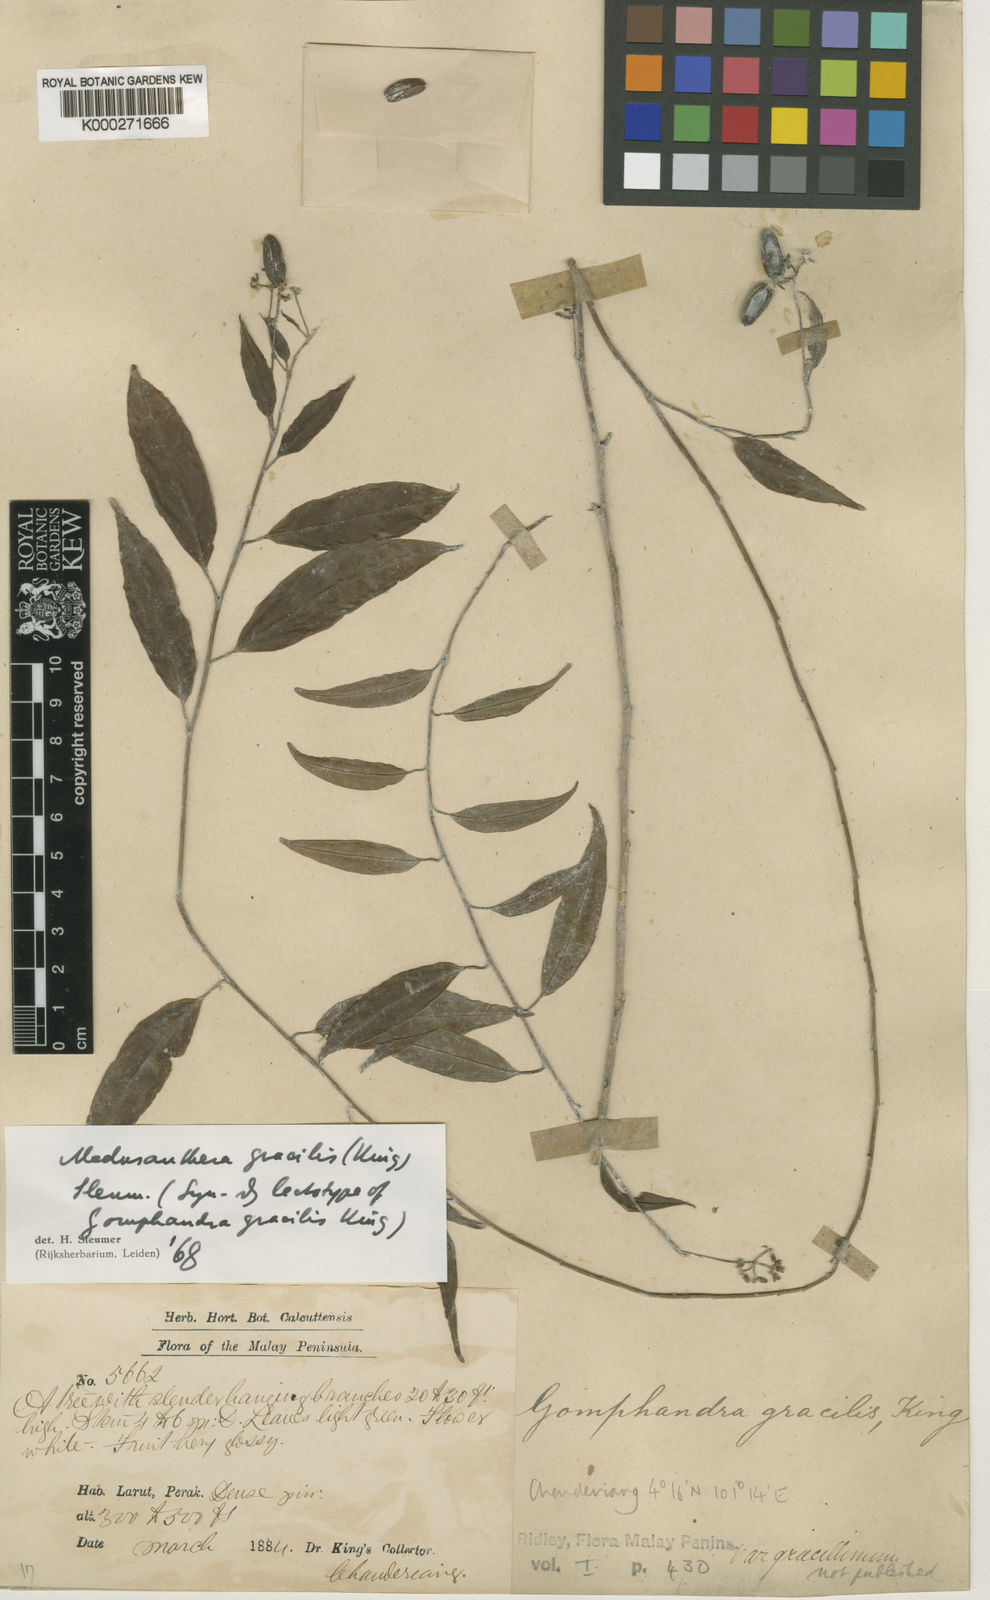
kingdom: Plantae
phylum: Tracheophyta
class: Magnoliopsida
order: Cardiopteridales
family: Stemonuraceae
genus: Medusanthera
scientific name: Medusanthera gracilis
